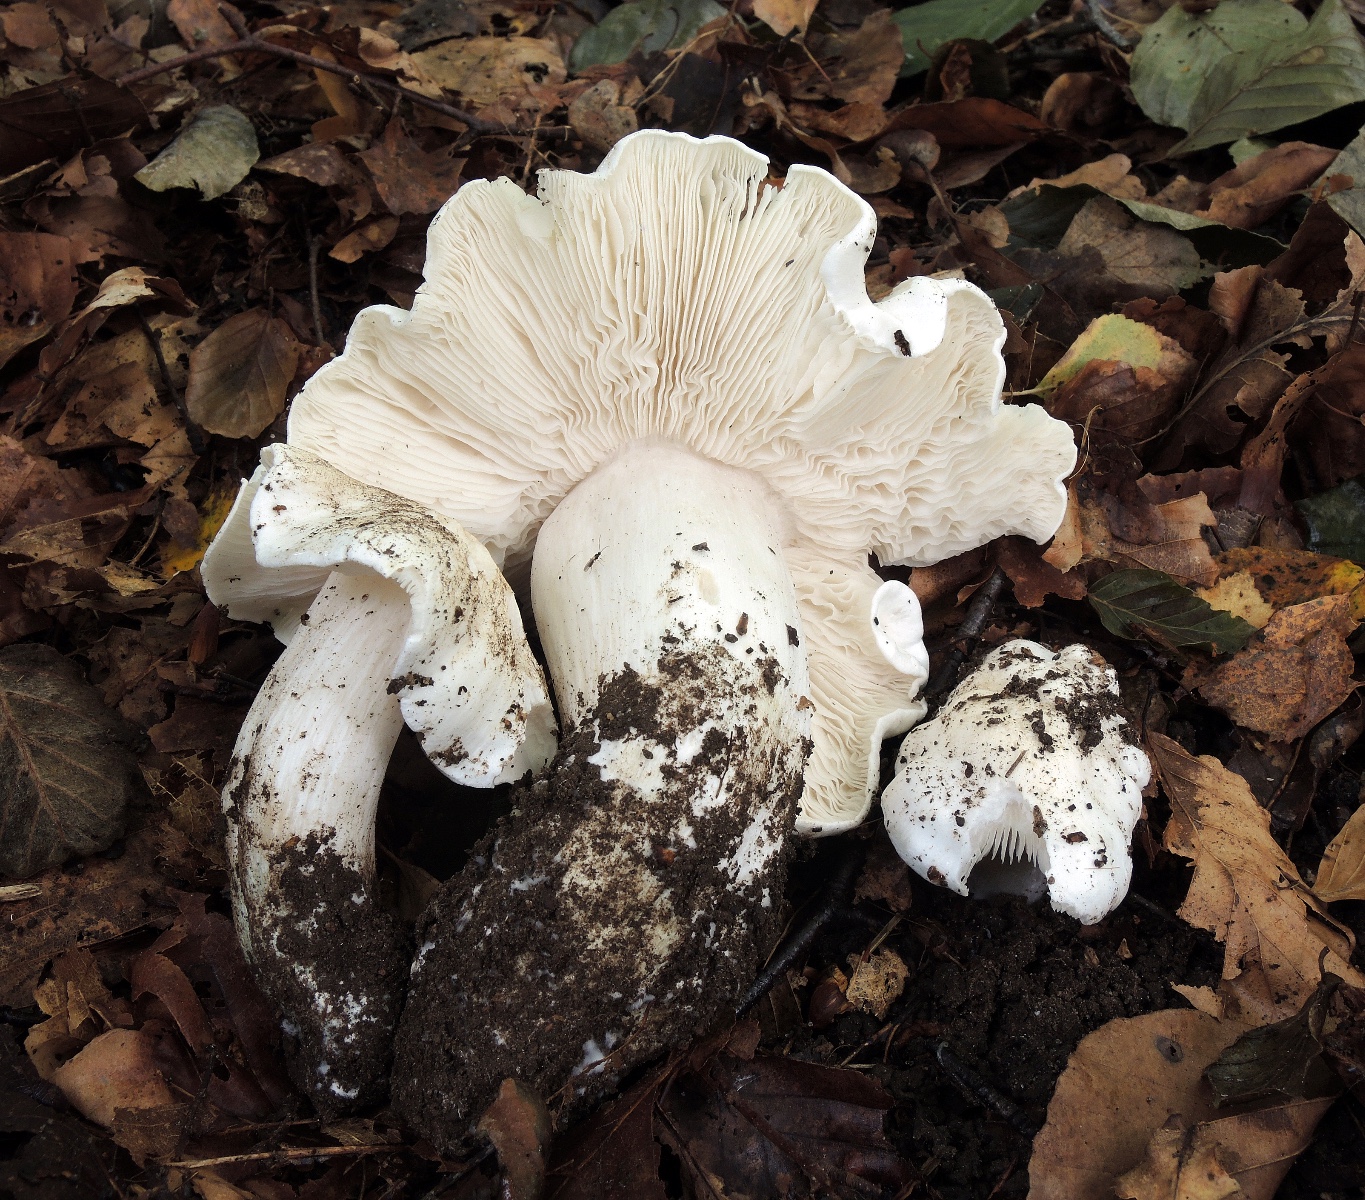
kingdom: Fungi
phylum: Basidiomycota
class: Agaricomycetes
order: Agaricales
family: Tricholomataceae
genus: Tricholoma
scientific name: Tricholoma columbetta
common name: silke-ridderhat
